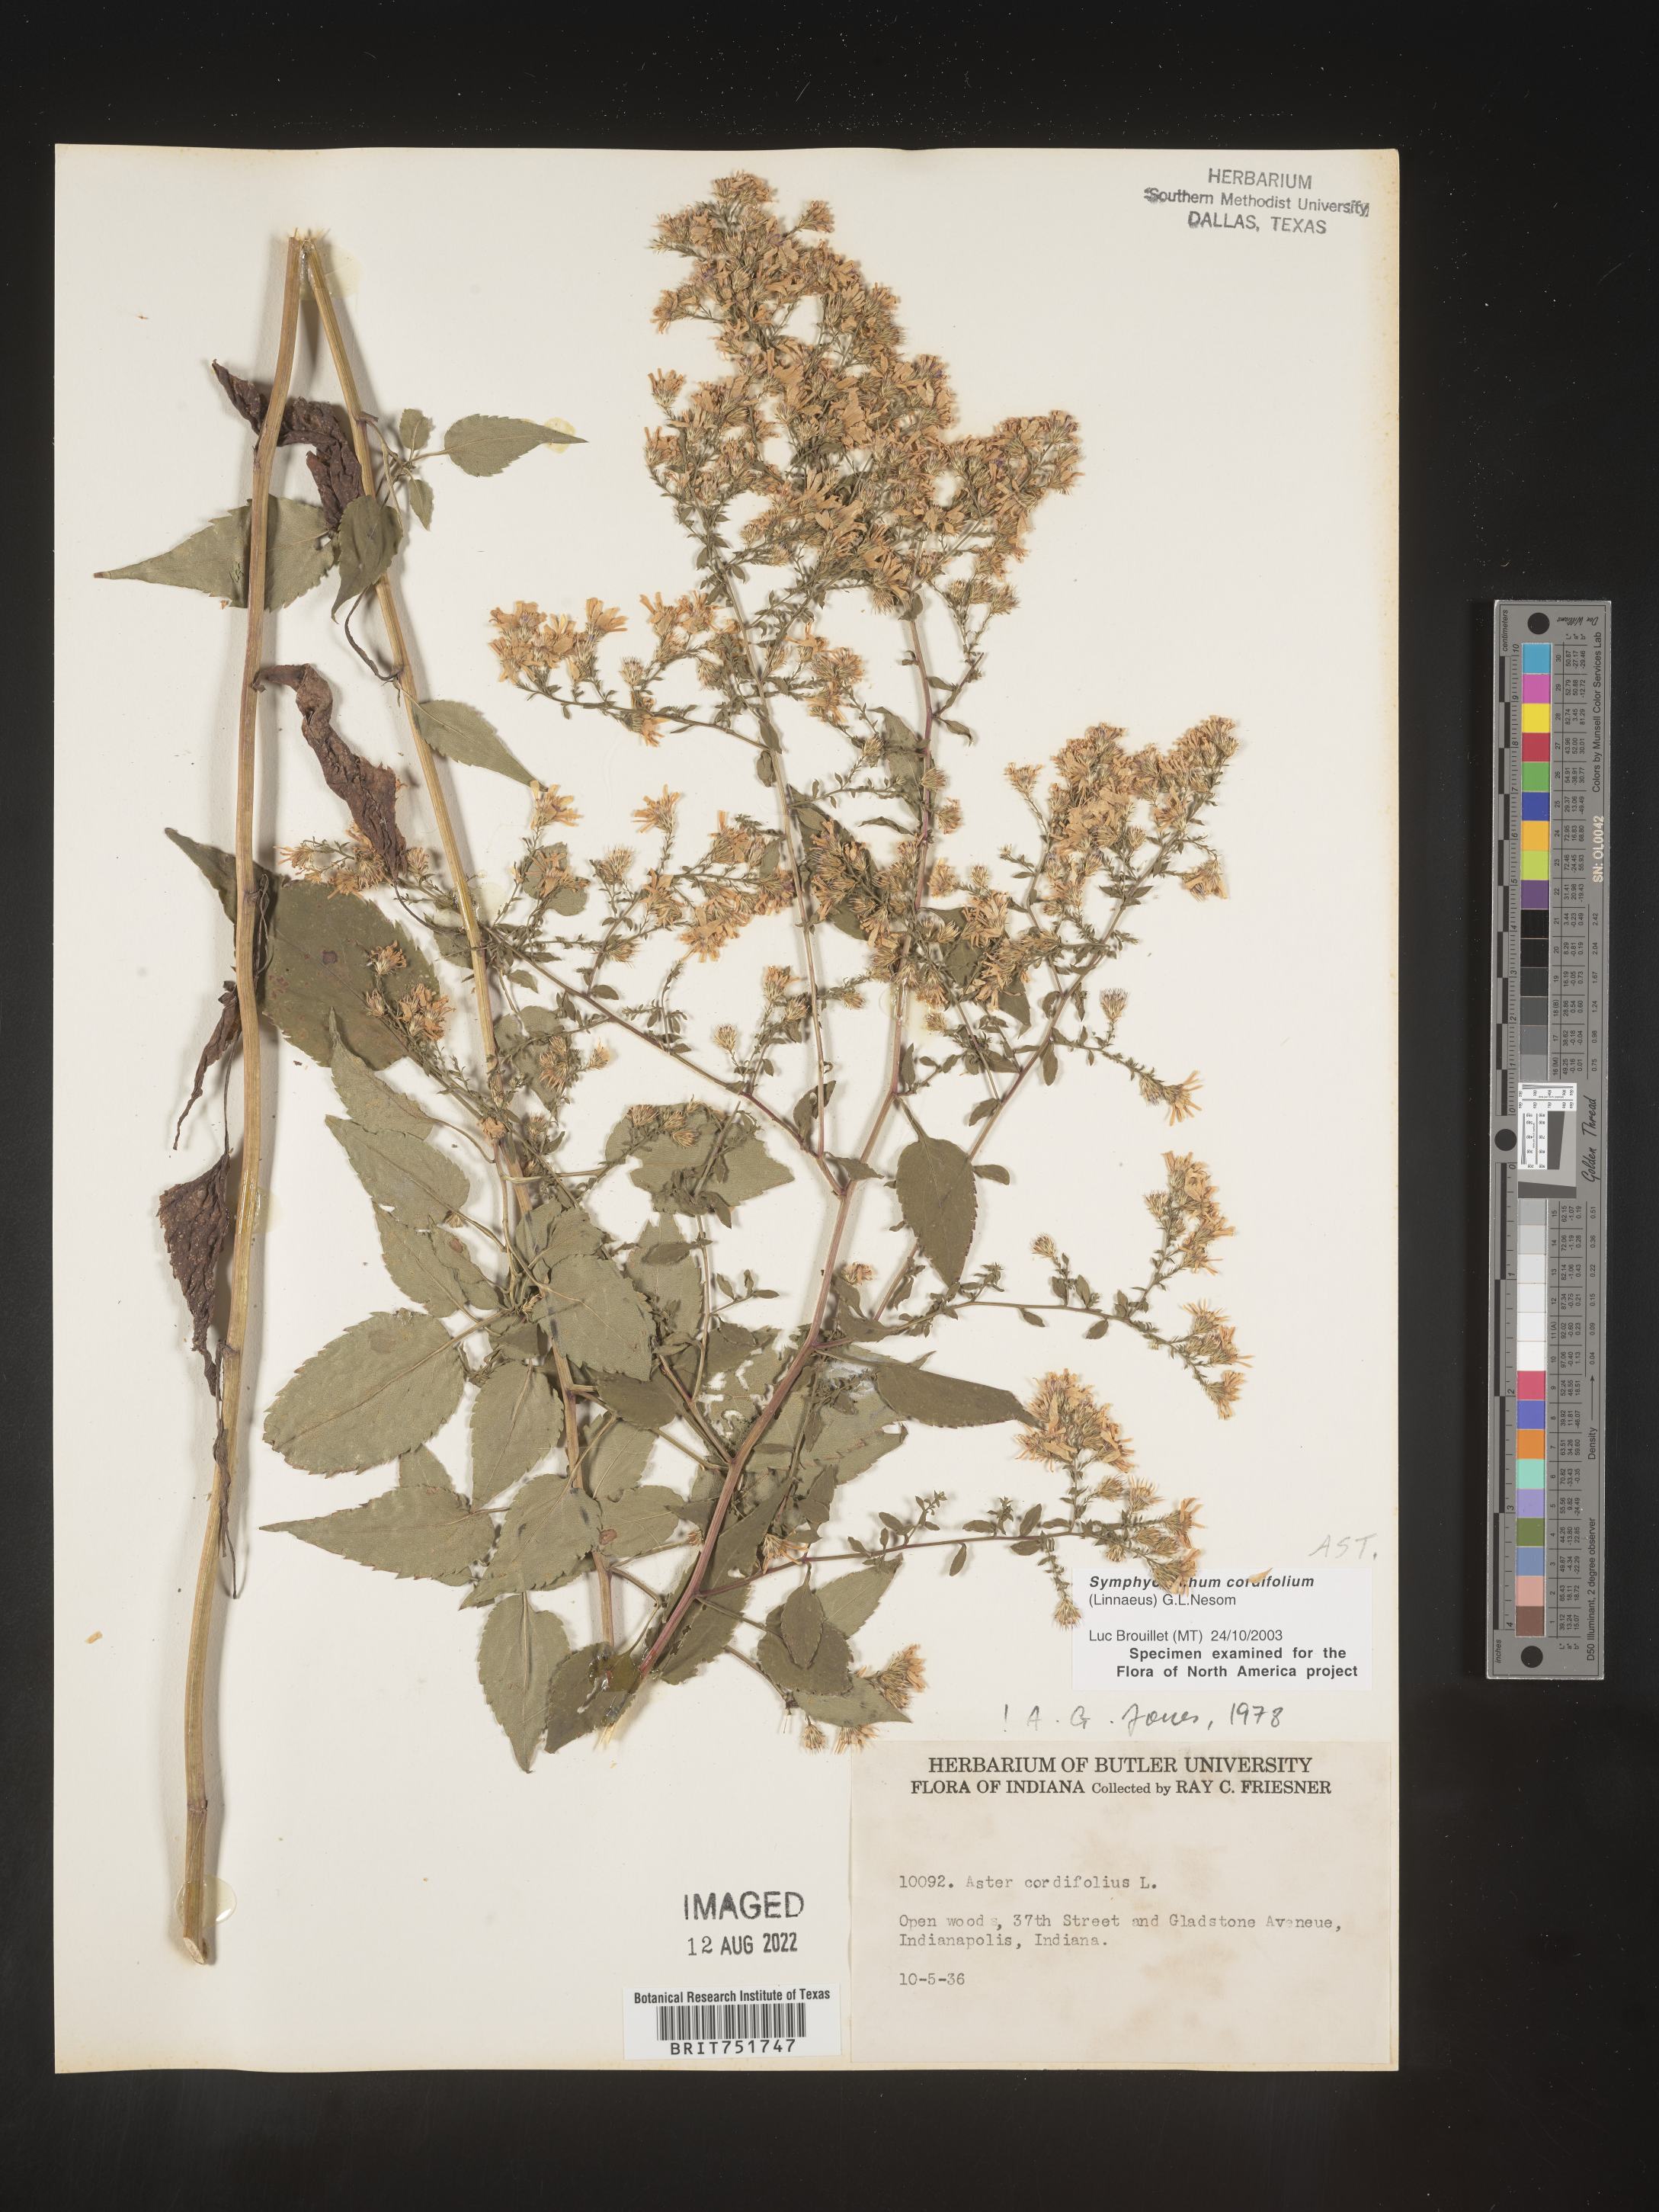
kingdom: Plantae
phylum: Tracheophyta
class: Magnoliopsida
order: Asterales
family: Asteraceae
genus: Symphyotrichum
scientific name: Symphyotrichum cordifolium
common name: Beeweed
